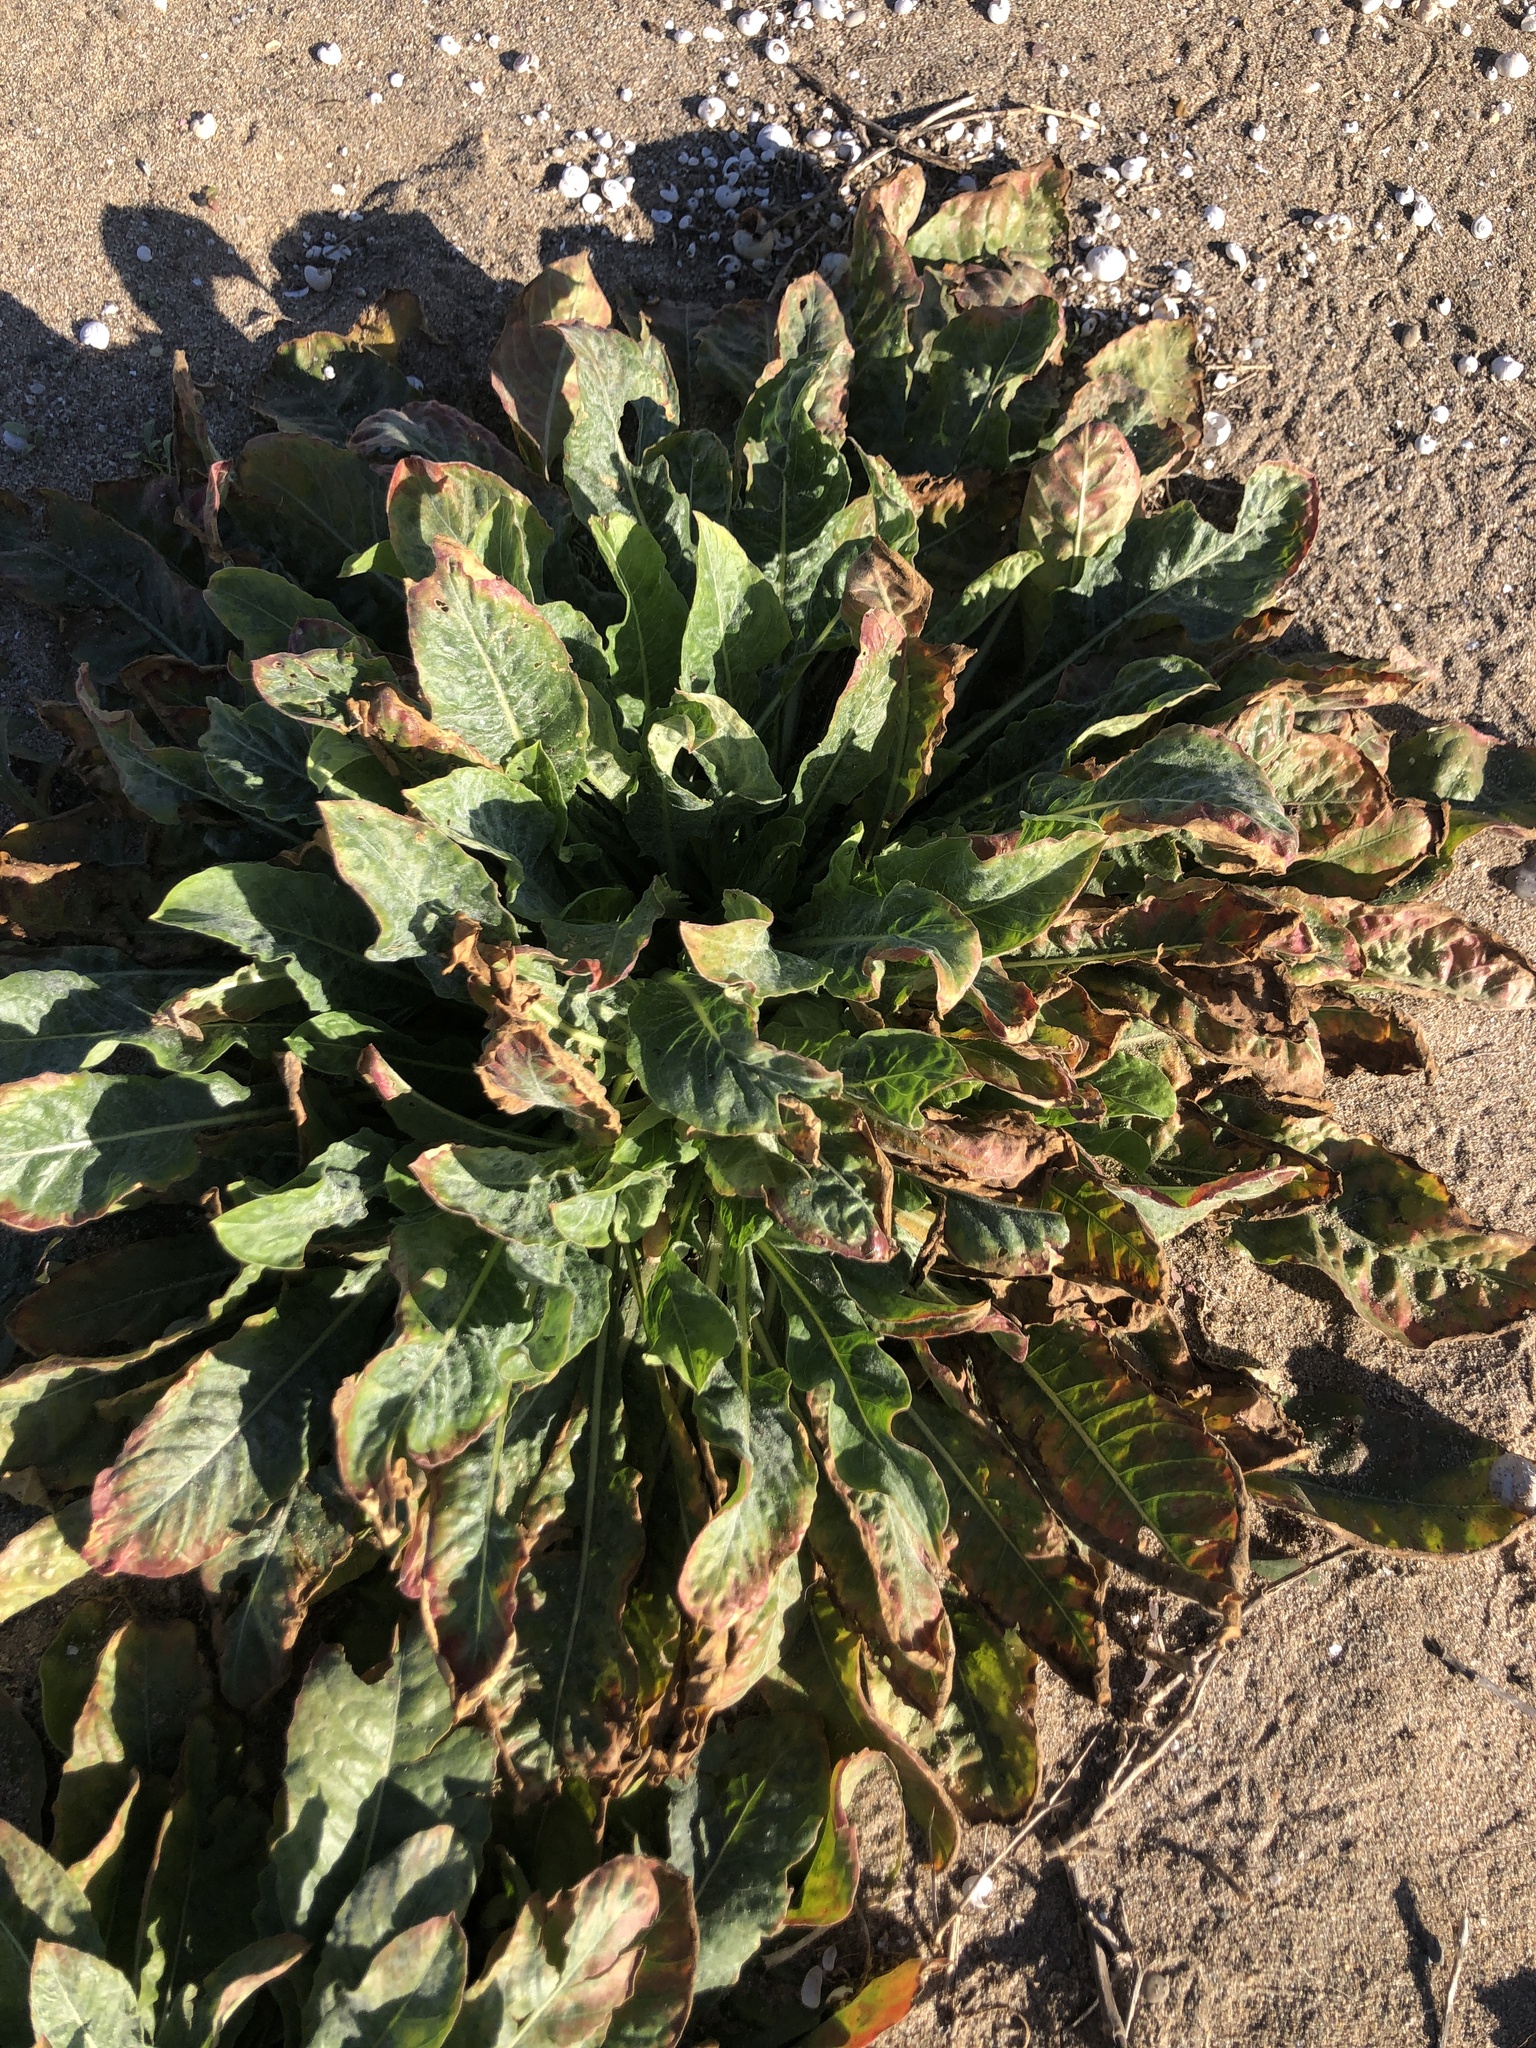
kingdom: Plantae
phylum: Tracheophyta
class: Magnoliopsida
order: Myrtales
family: Onagraceae
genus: Oenothera
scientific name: Oenothera glazioviana
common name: Large-flowered evening-primrose
